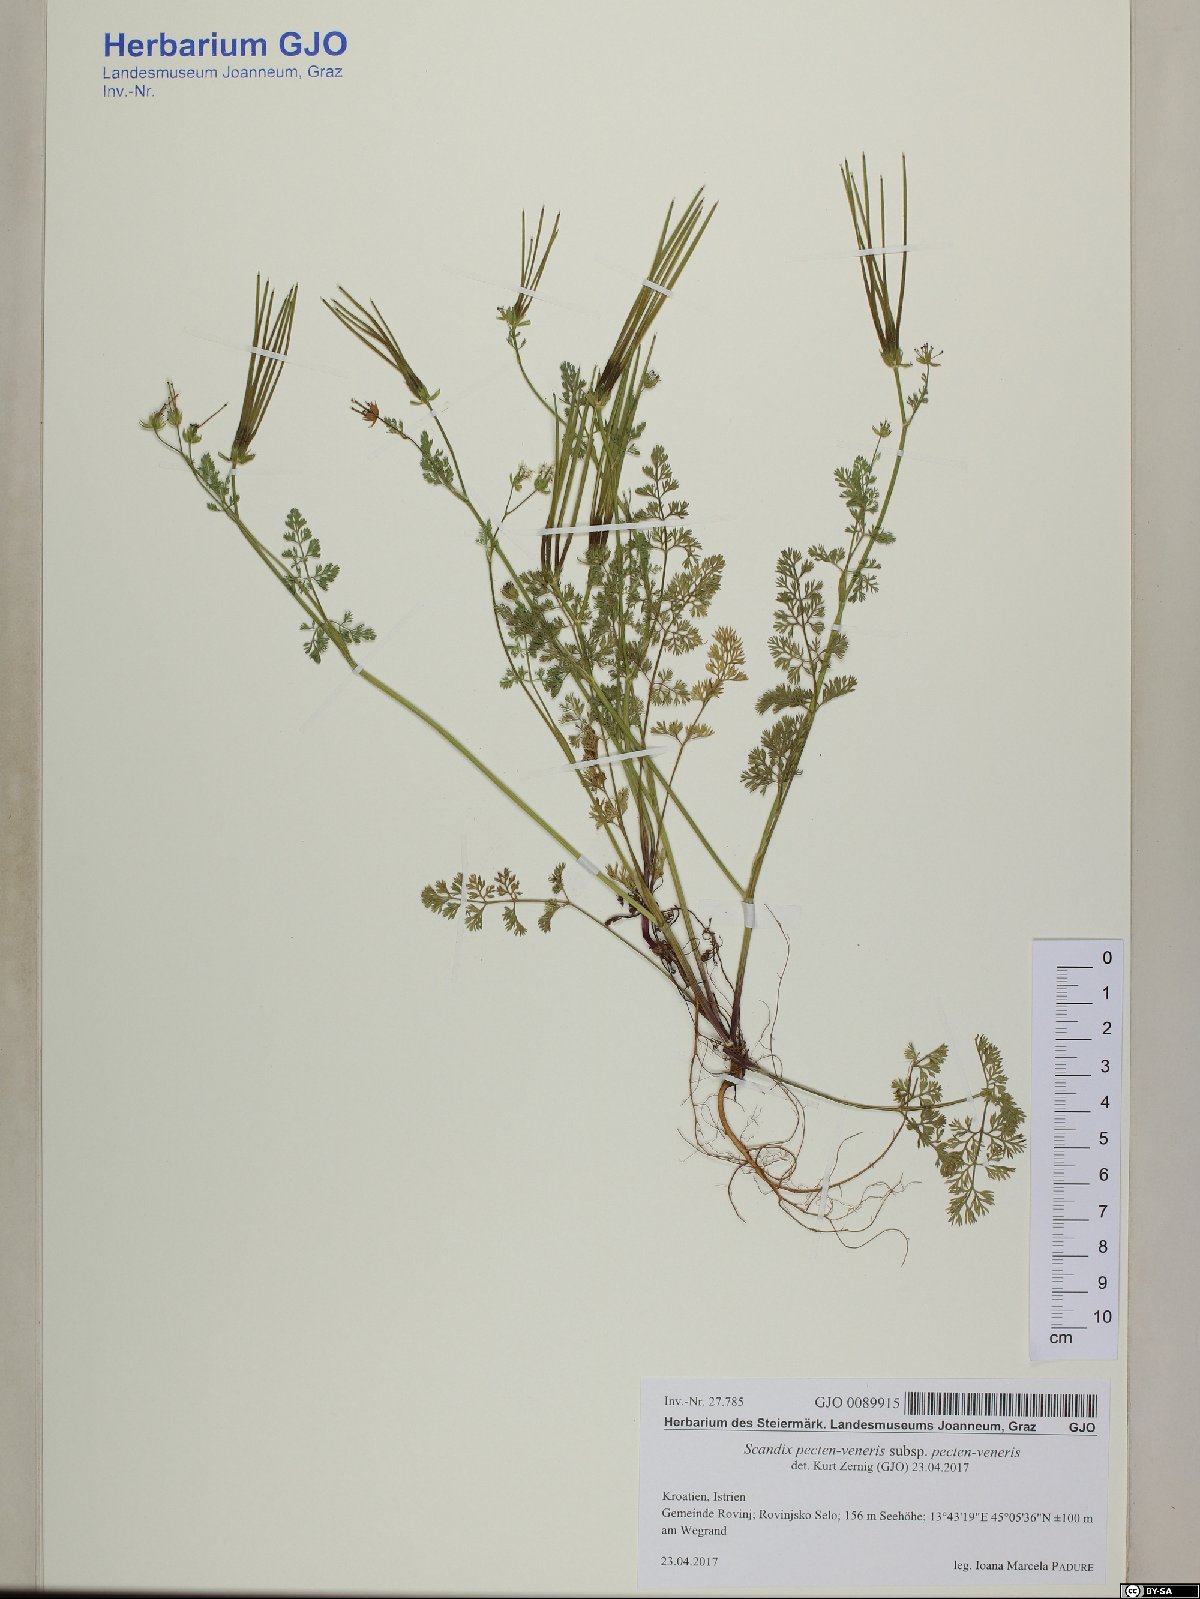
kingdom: Plantae
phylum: Tracheophyta
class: Magnoliopsida
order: Apiales
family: Apiaceae
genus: Scandix
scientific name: Scandix pecten-veneris
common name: Shepherd's-needle
